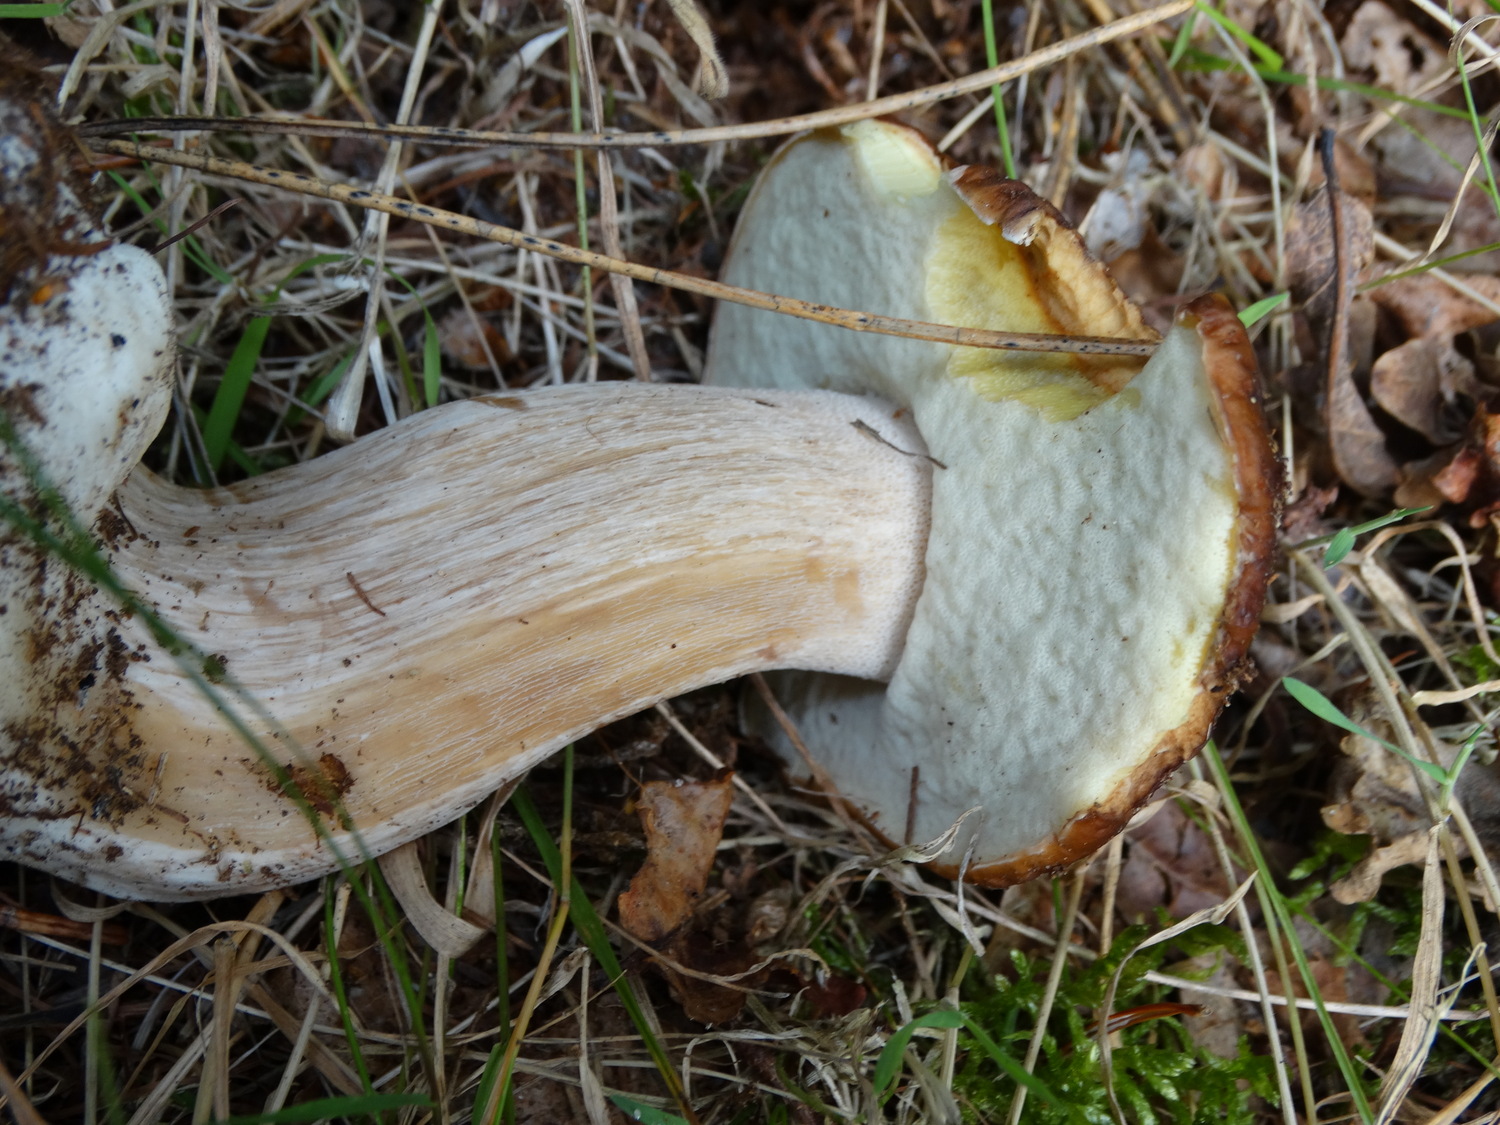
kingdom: Fungi
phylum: Basidiomycota
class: Agaricomycetes
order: Boletales
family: Boletaceae
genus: Boletus
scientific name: Boletus edulis
